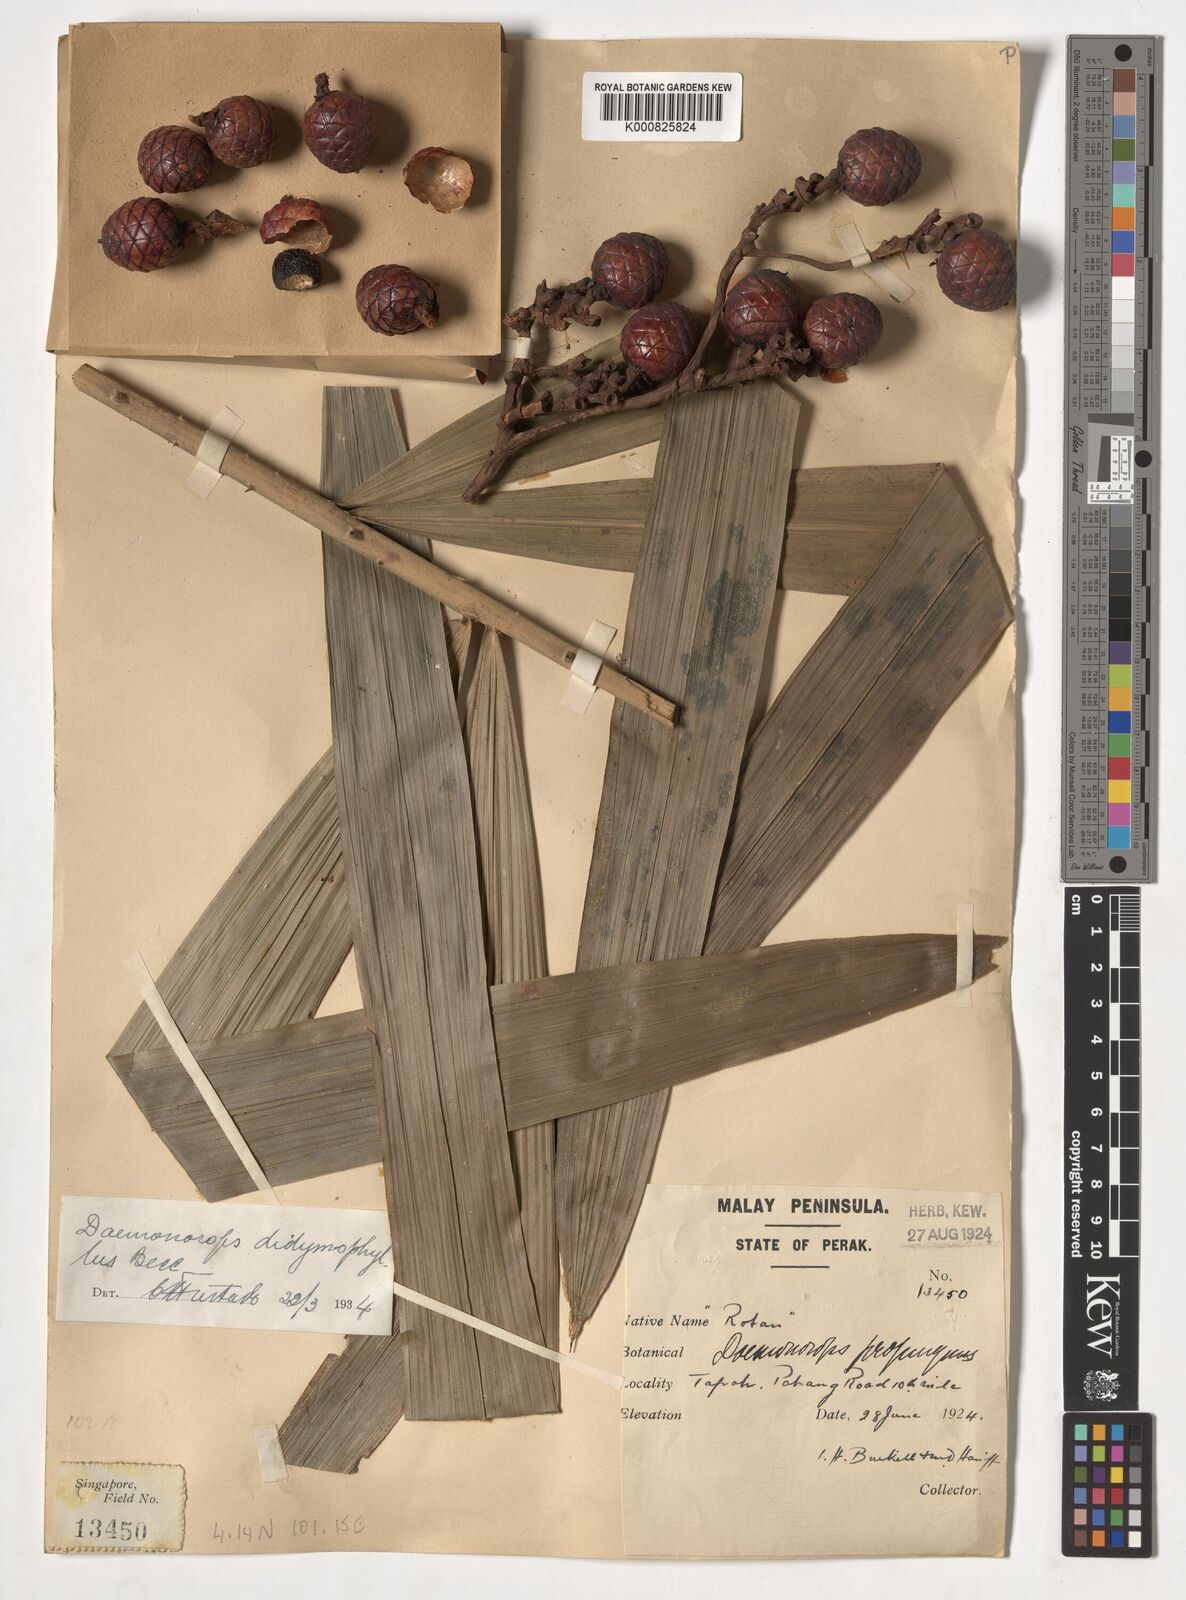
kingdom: Plantae
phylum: Tracheophyta
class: Liliopsida
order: Arecales
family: Arecaceae
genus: Calamus
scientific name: Calamus gracilipes
